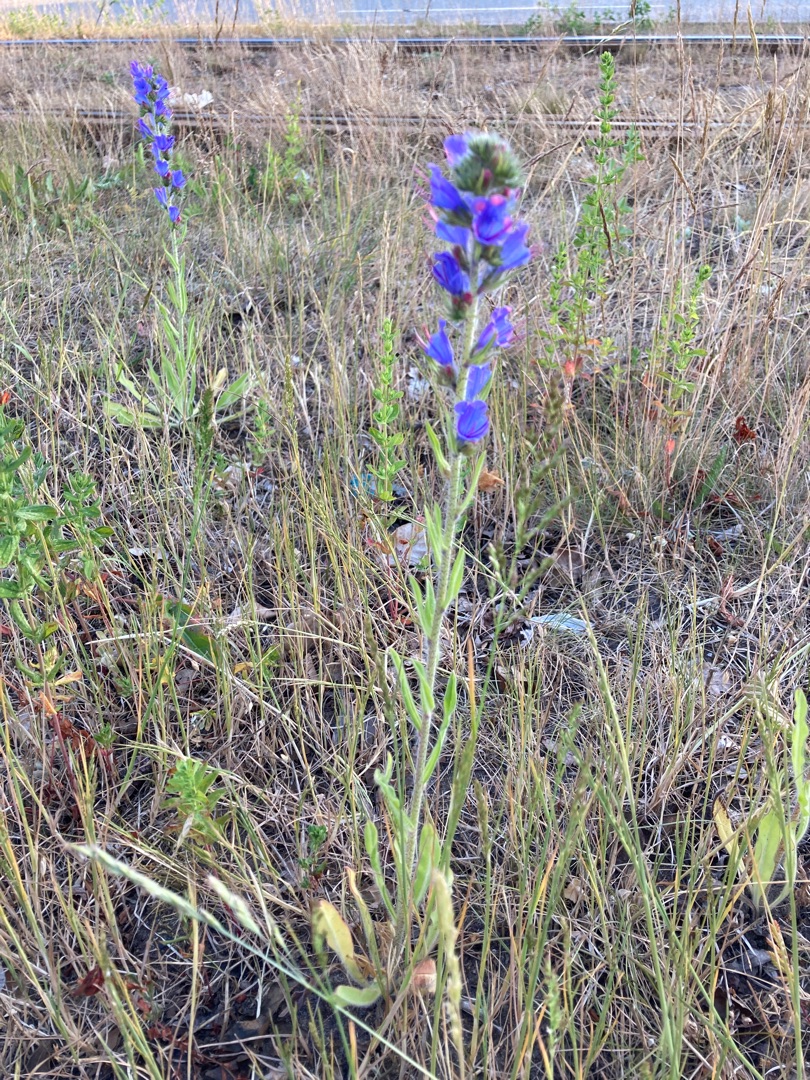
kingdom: Plantae
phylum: Tracheophyta
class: Magnoliopsida
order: Boraginales
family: Boraginaceae
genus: Echium
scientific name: Echium vulgare
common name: Slangehoved
